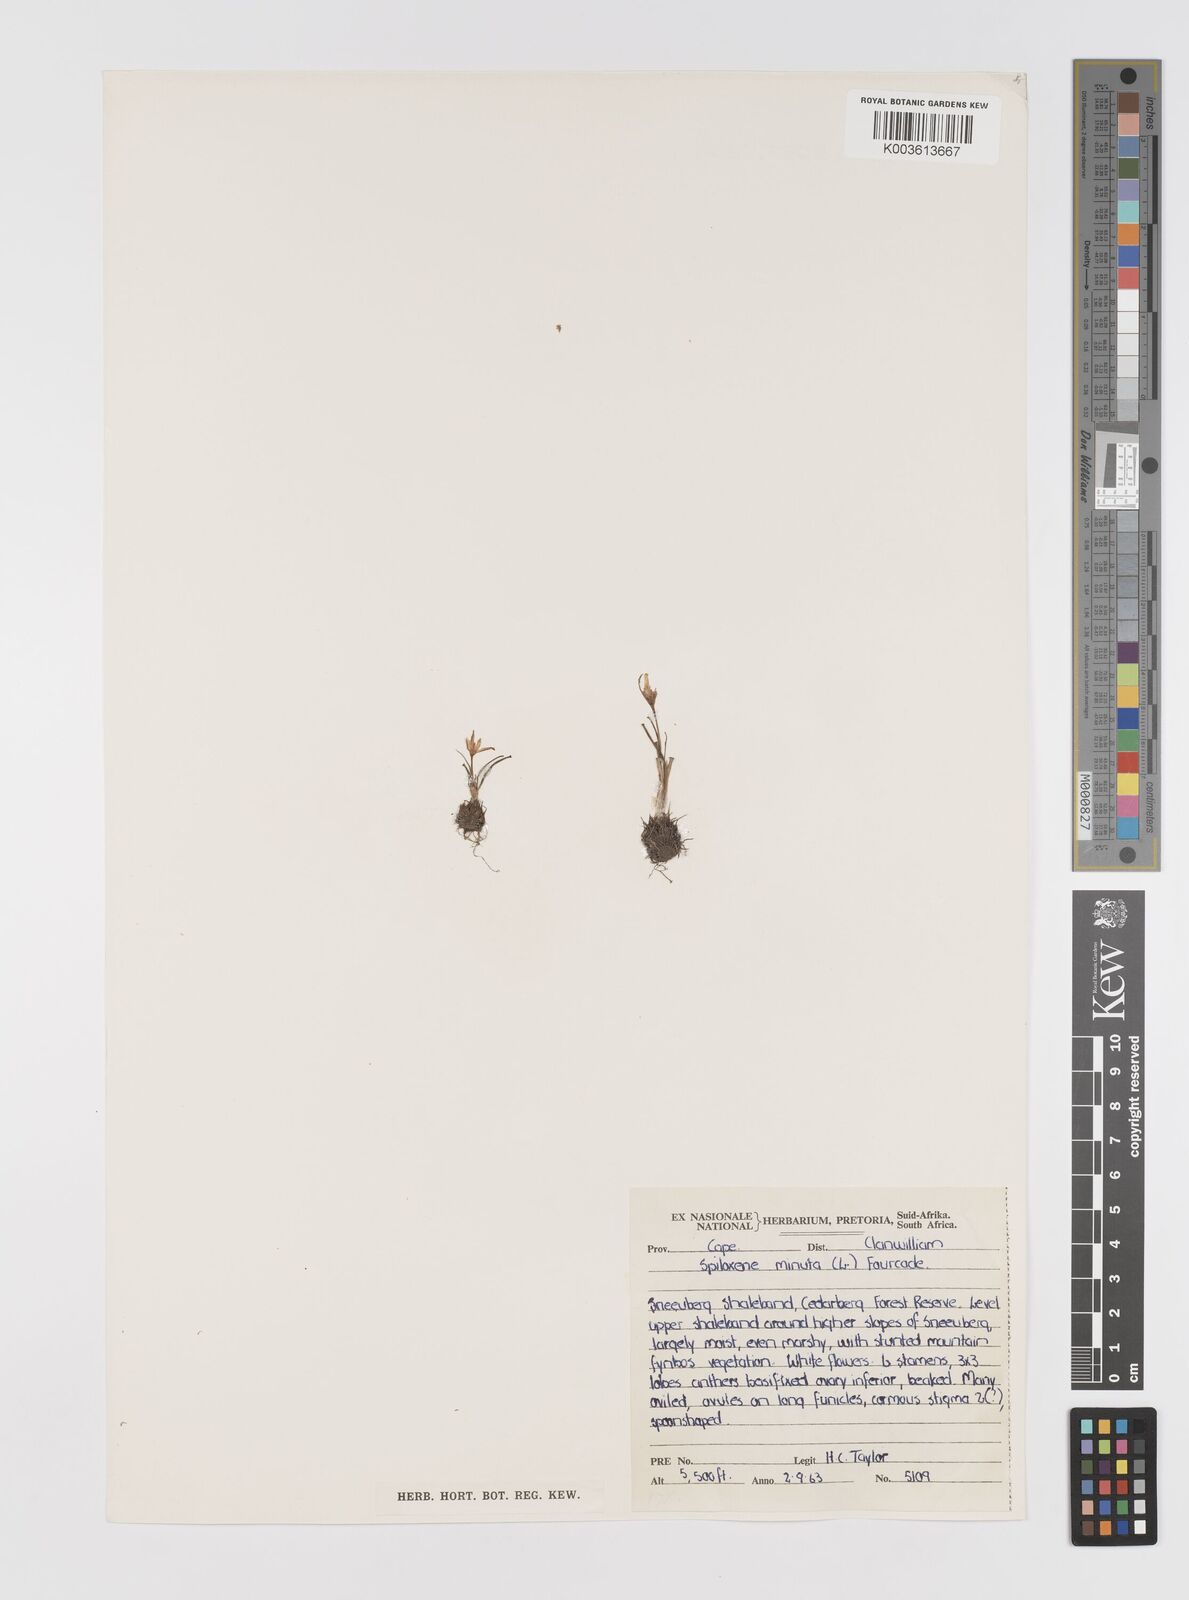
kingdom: Plantae
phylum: Tracheophyta
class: Liliopsida
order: Asparagales
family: Hypoxidaceae
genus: Pauridia
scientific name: Pauridia
